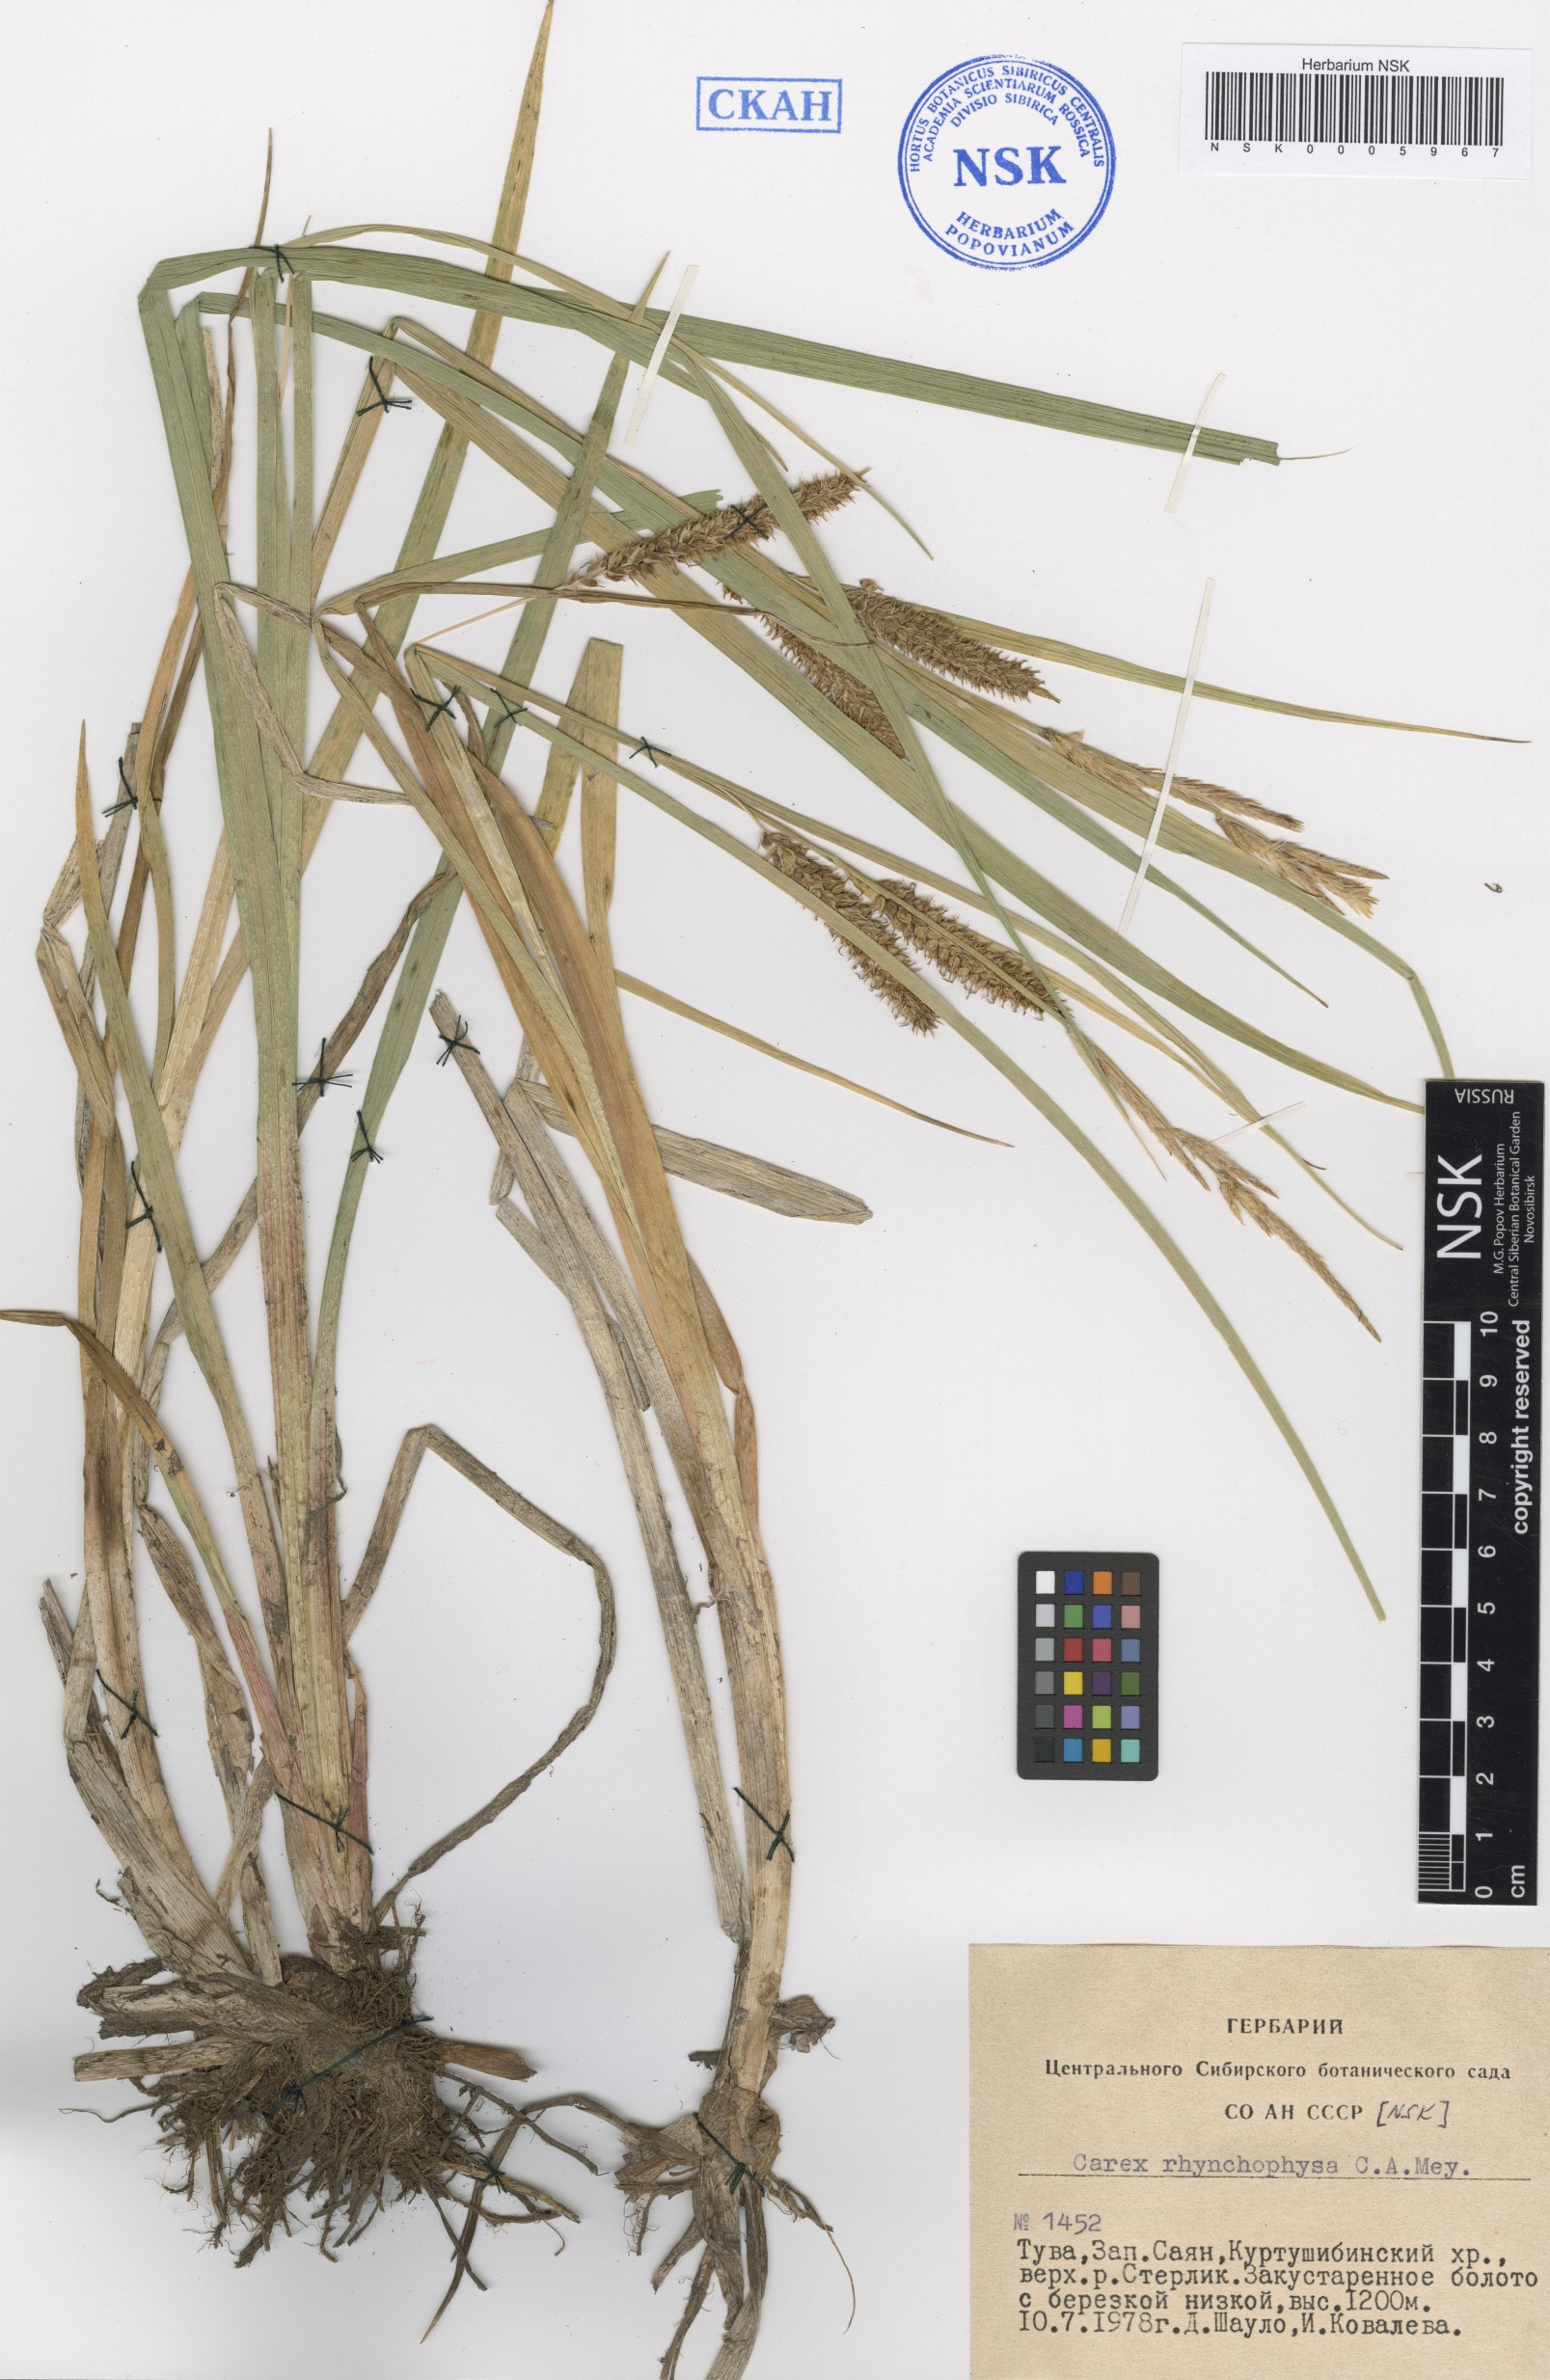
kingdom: Plantae
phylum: Tracheophyta
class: Liliopsida
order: Poales
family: Cyperaceae
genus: Carex
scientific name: Carex utriculata
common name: Beaked sedge
